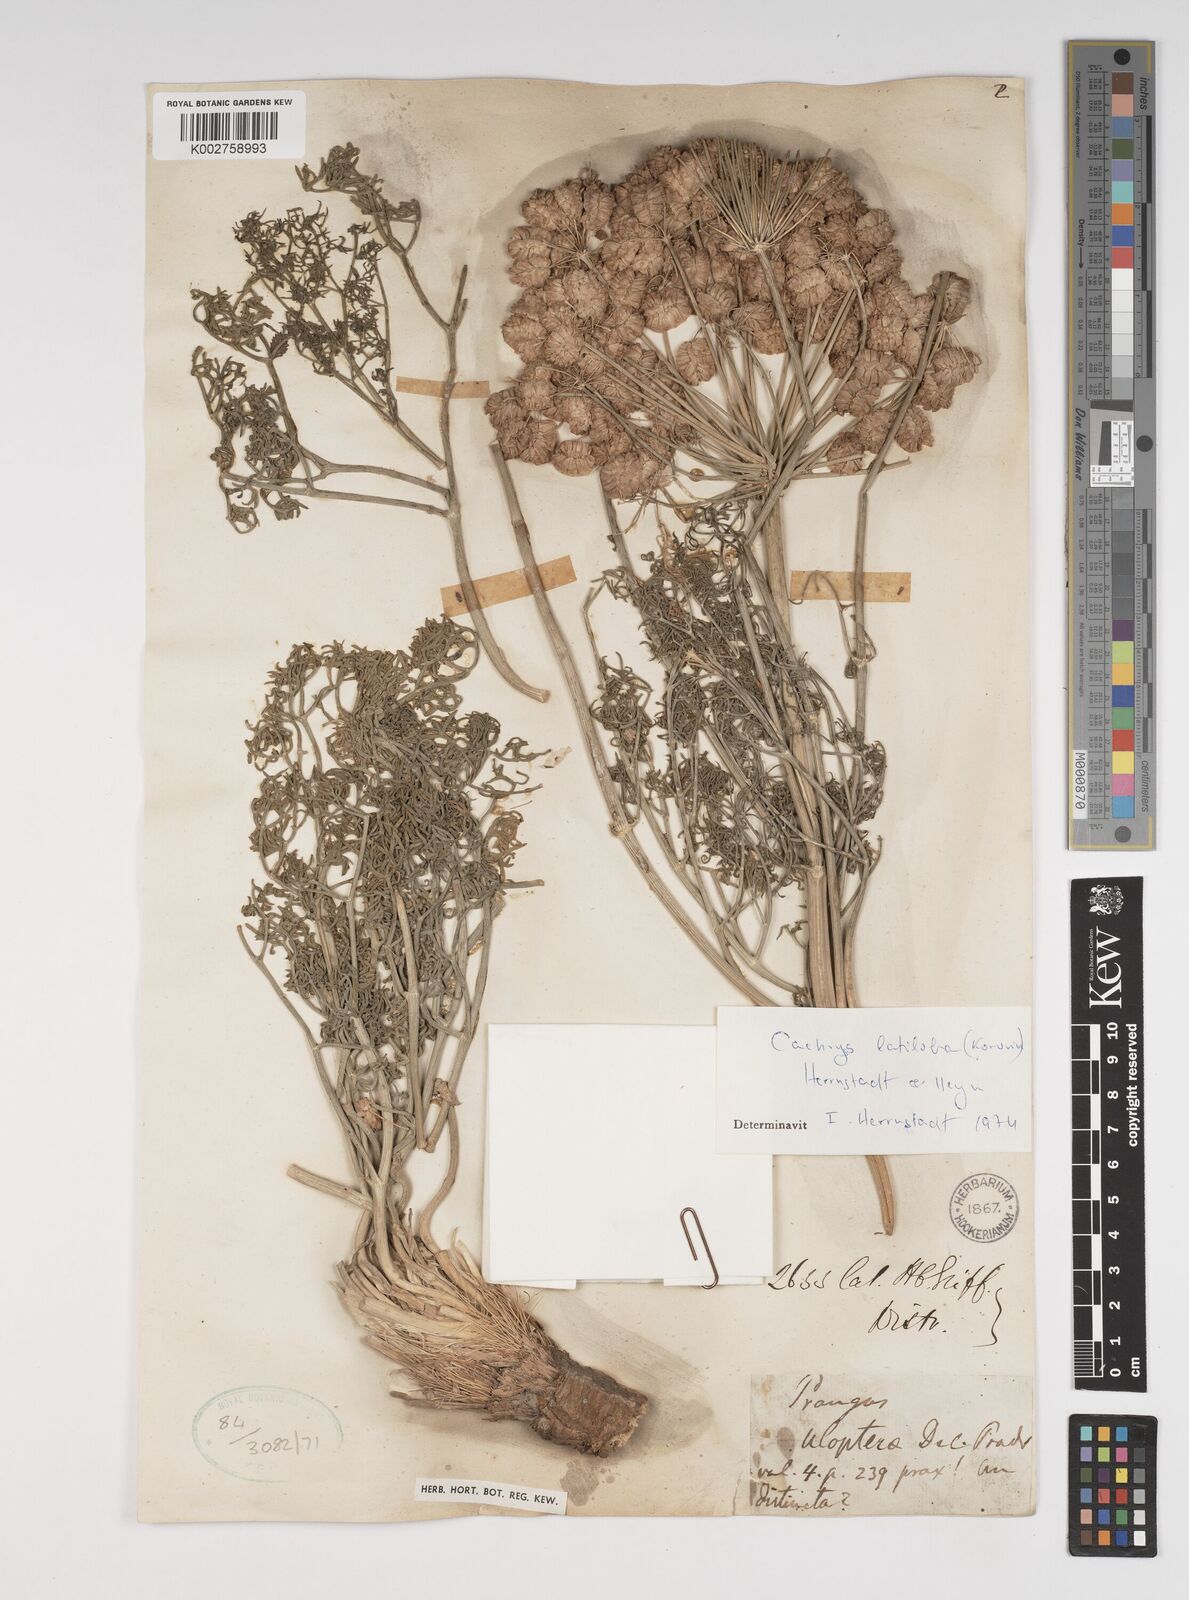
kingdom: Plantae
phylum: Tracheophyta
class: Magnoliopsida
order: Apiales
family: Apiaceae
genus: Prangos
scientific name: Prangos latiloba
